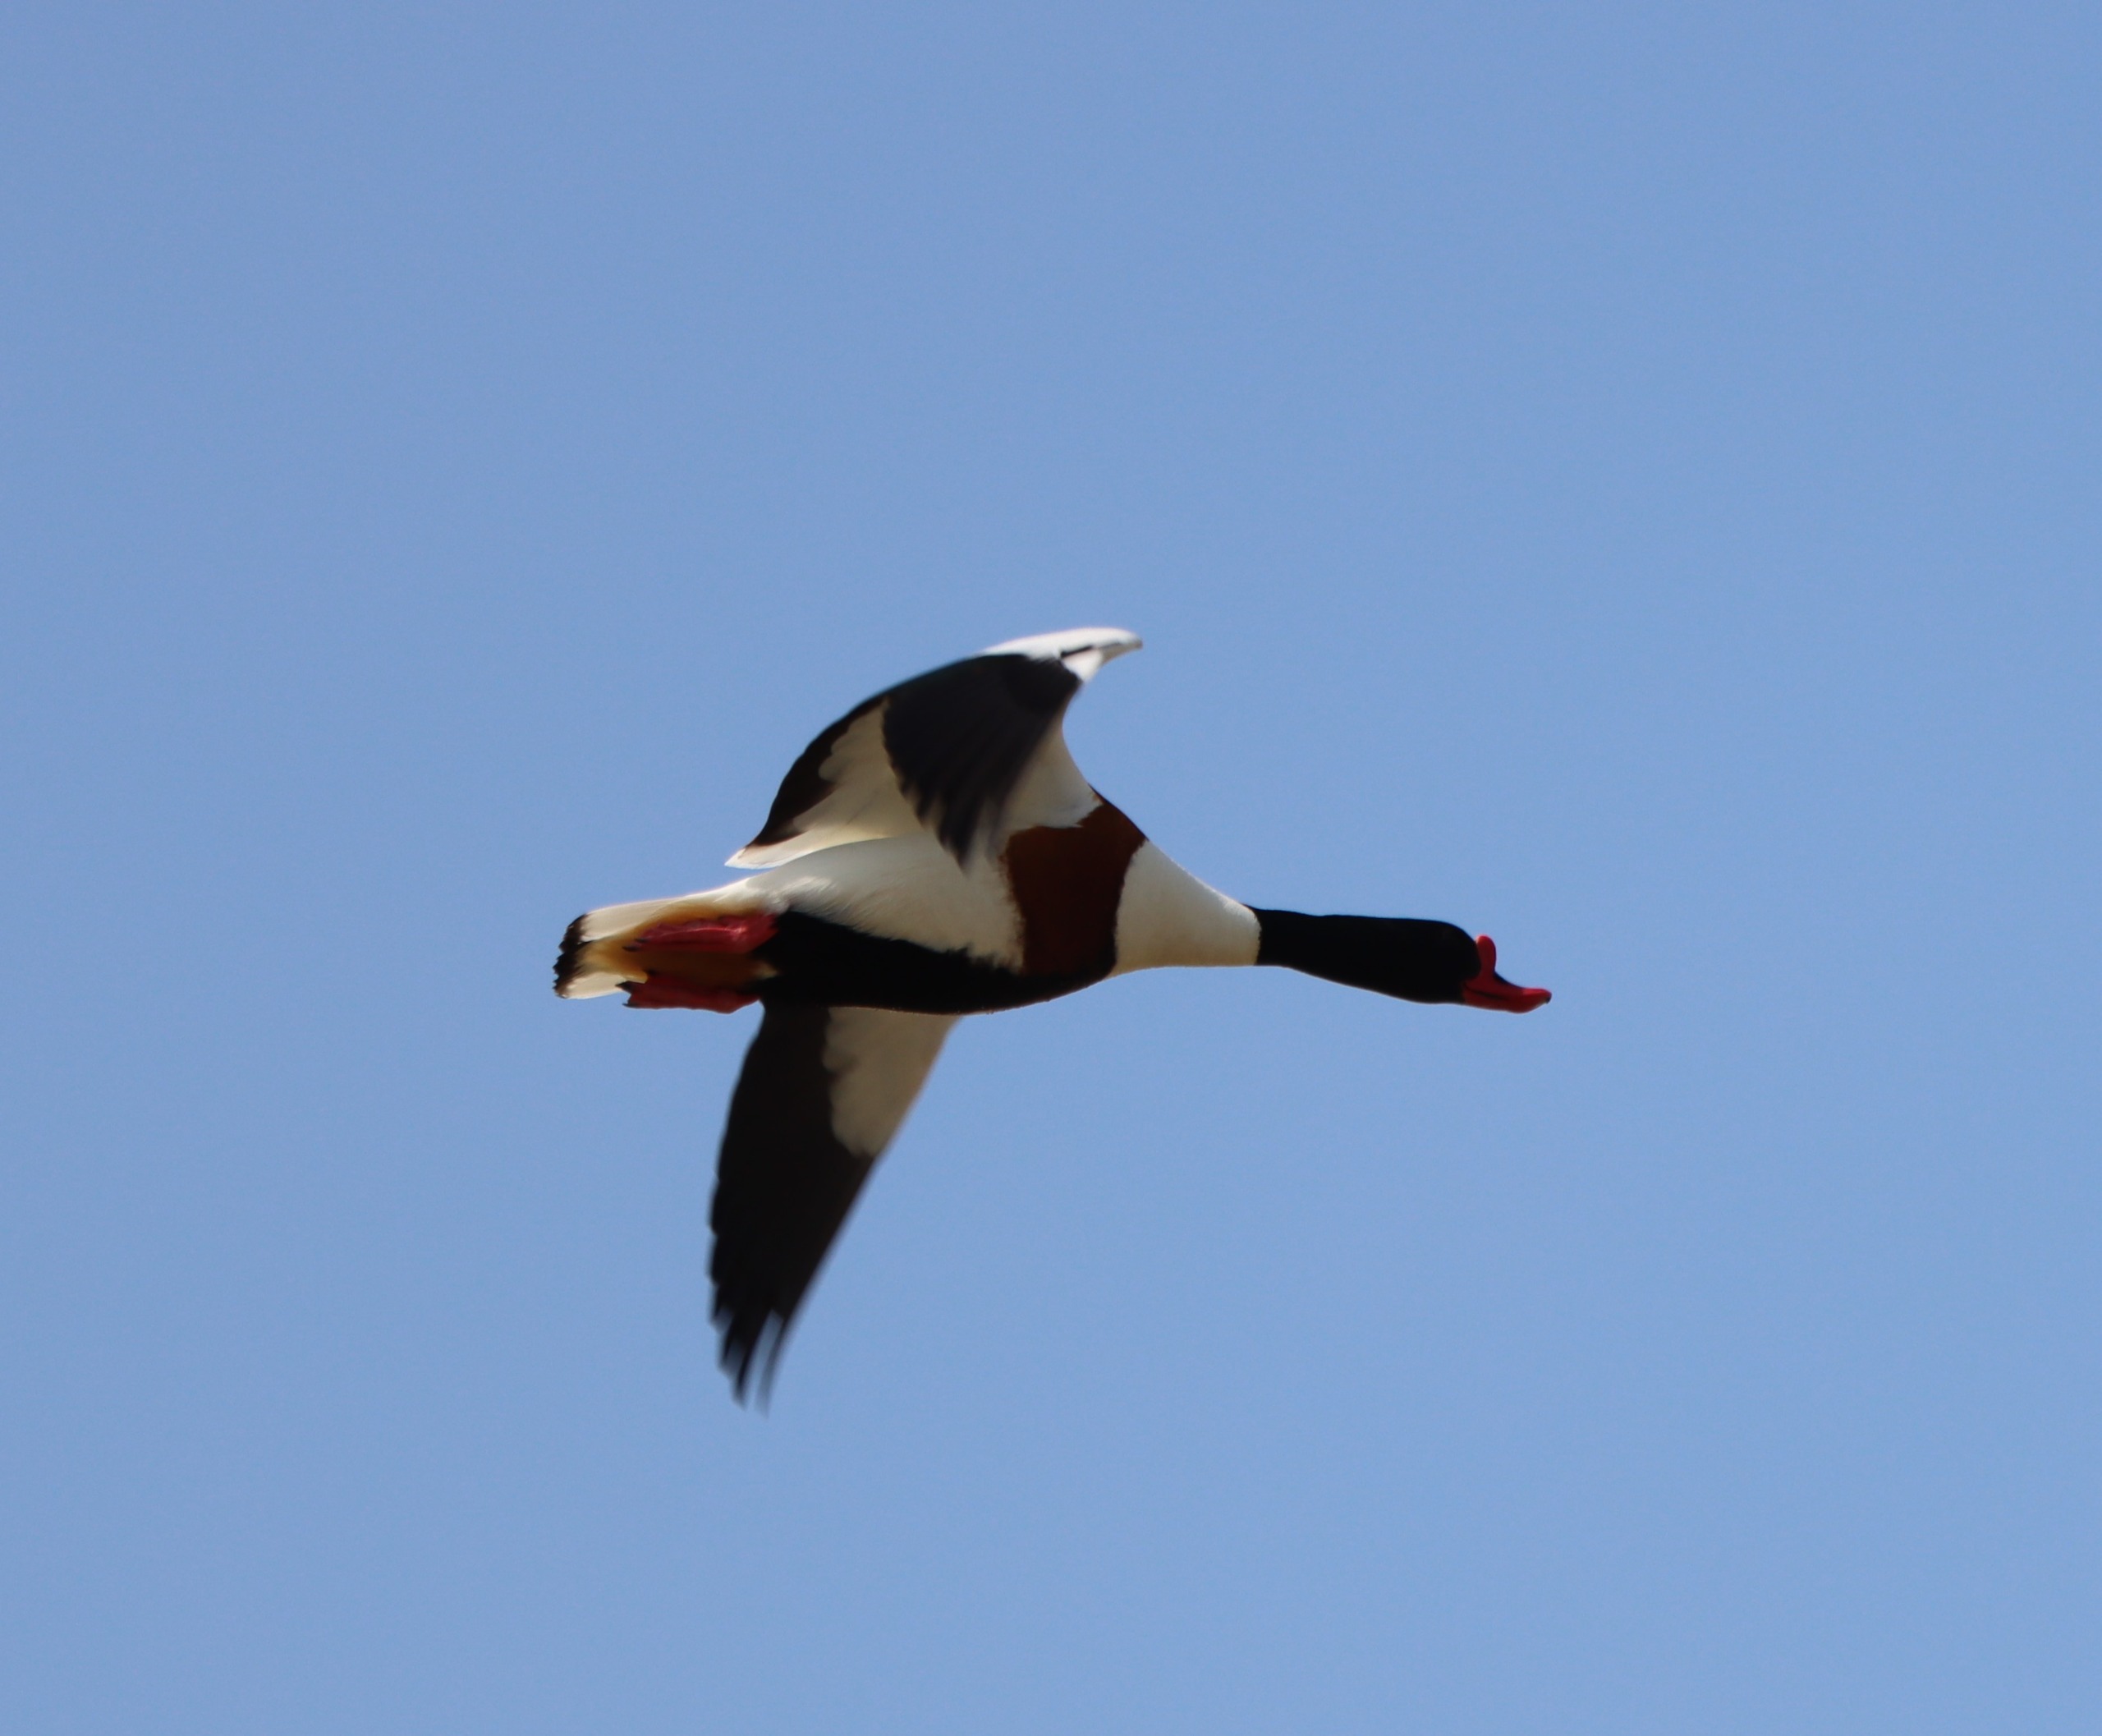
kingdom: Animalia
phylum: Chordata
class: Aves
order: Anseriformes
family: Anatidae
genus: Tadorna
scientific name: Tadorna tadorna
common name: Gravand
